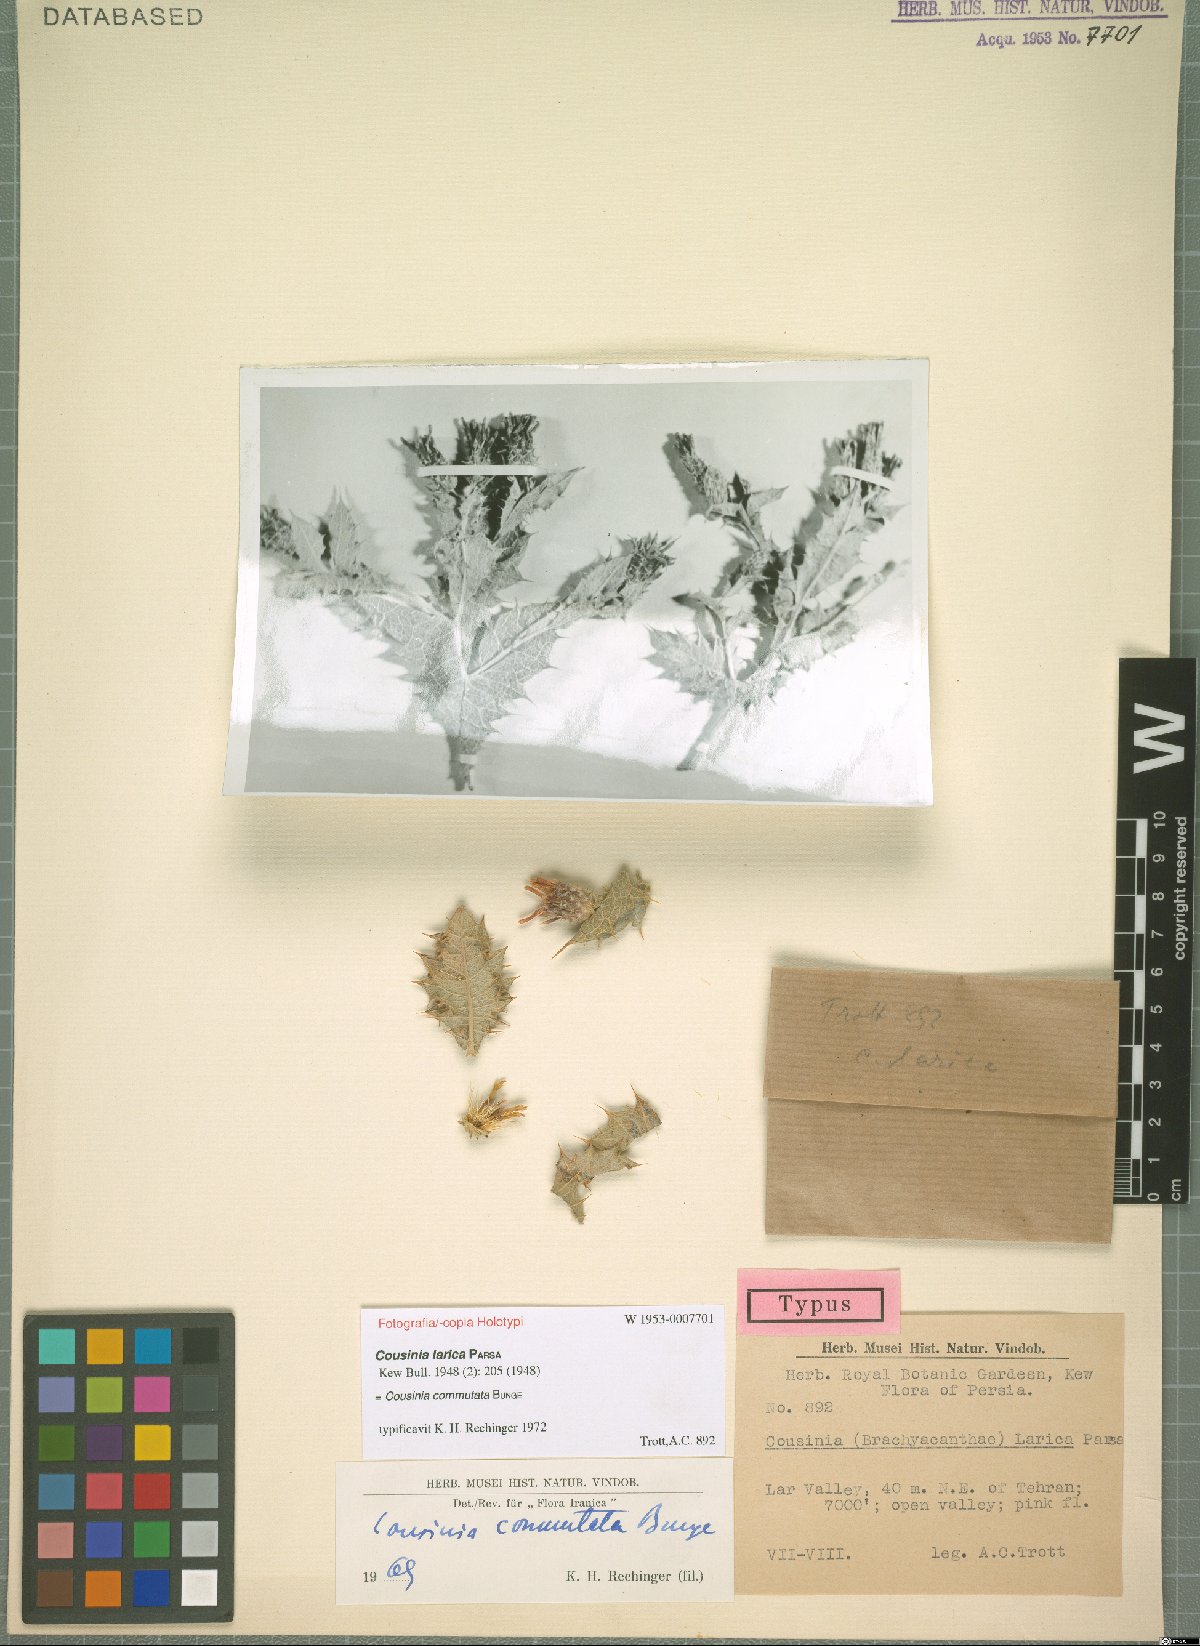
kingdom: Plantae
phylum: Tracheophyta
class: Magnoliopsida
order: Asterales
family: Asteraceae
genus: Cousinia
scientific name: Cousinia commutata
